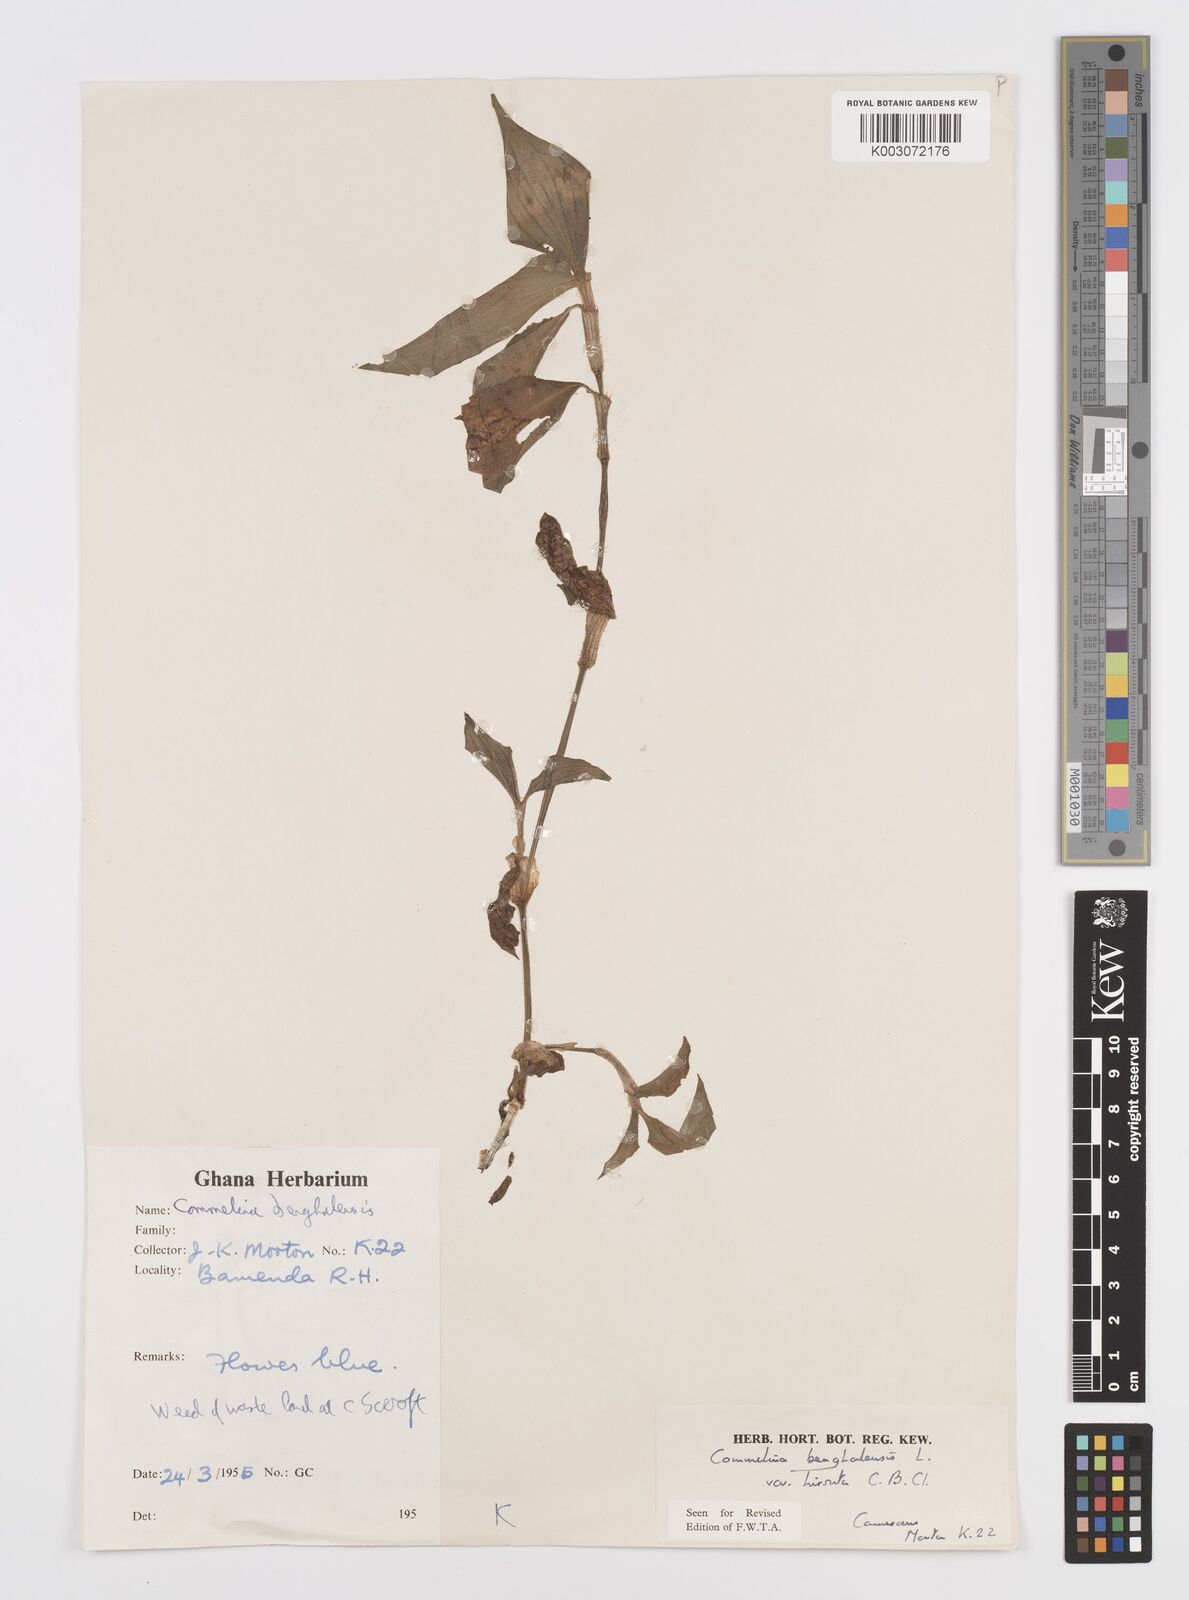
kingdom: Plantae
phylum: Tracheophyta
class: Liliopsida
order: Commelinales
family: Commelinaceae
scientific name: Commelinaceae
